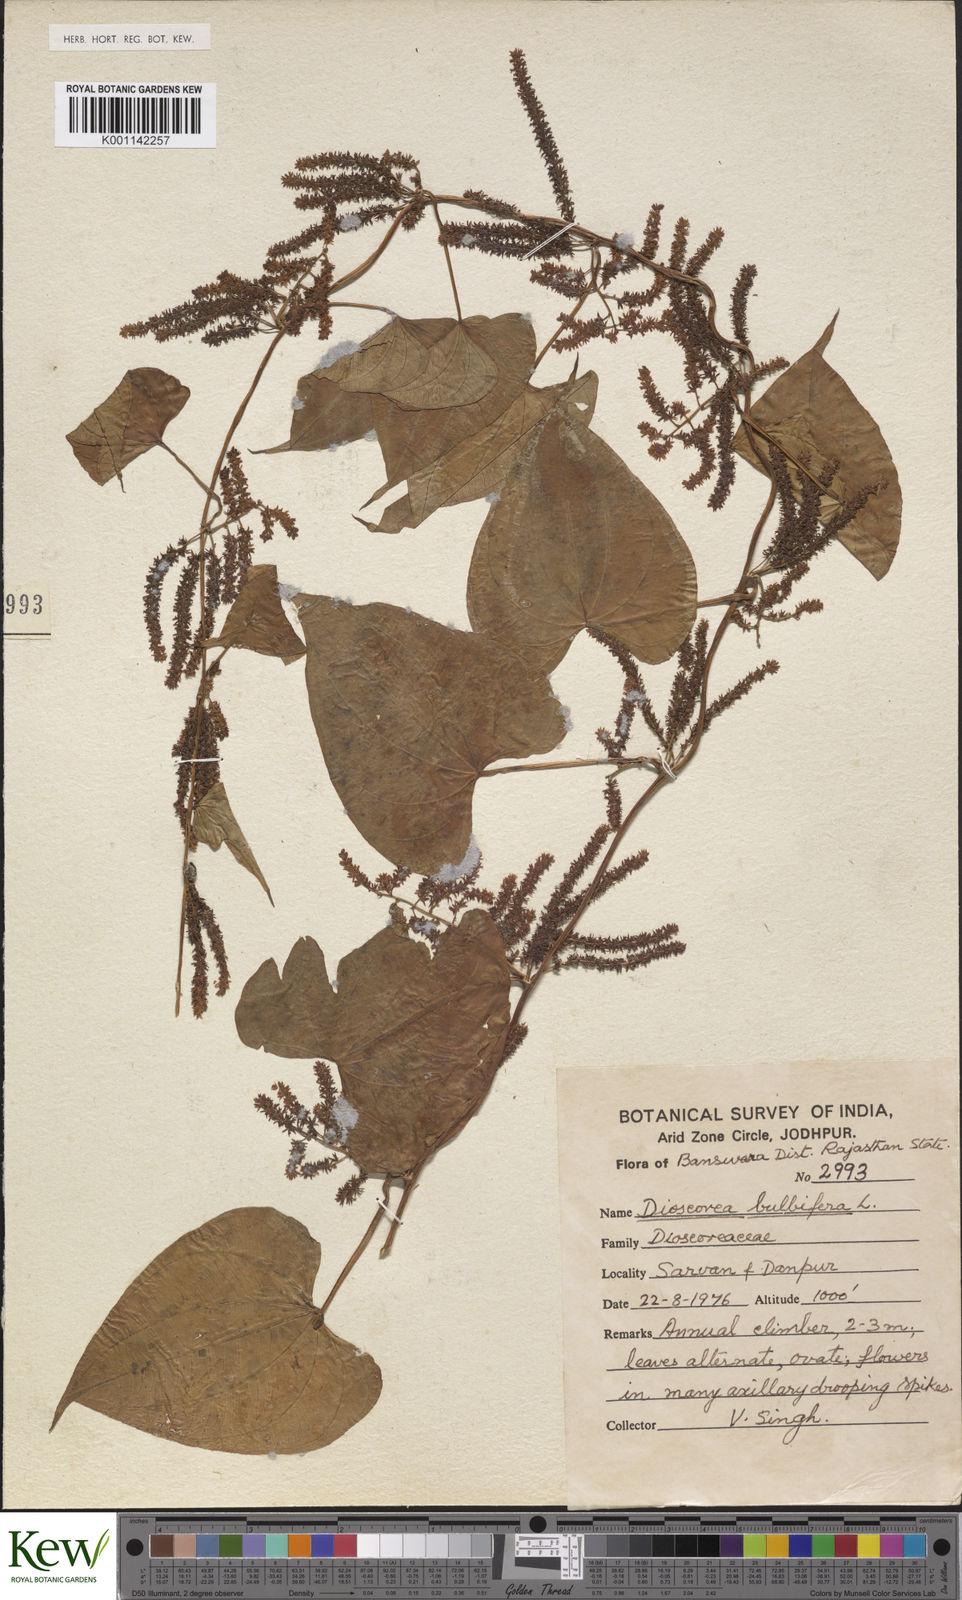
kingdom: Plantae
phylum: Tracheophyta
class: Liliopsida
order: Dioscoreales
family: Dioscoreaceae
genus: Dioscorea
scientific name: Dioscorea bulbifera
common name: Air yam
